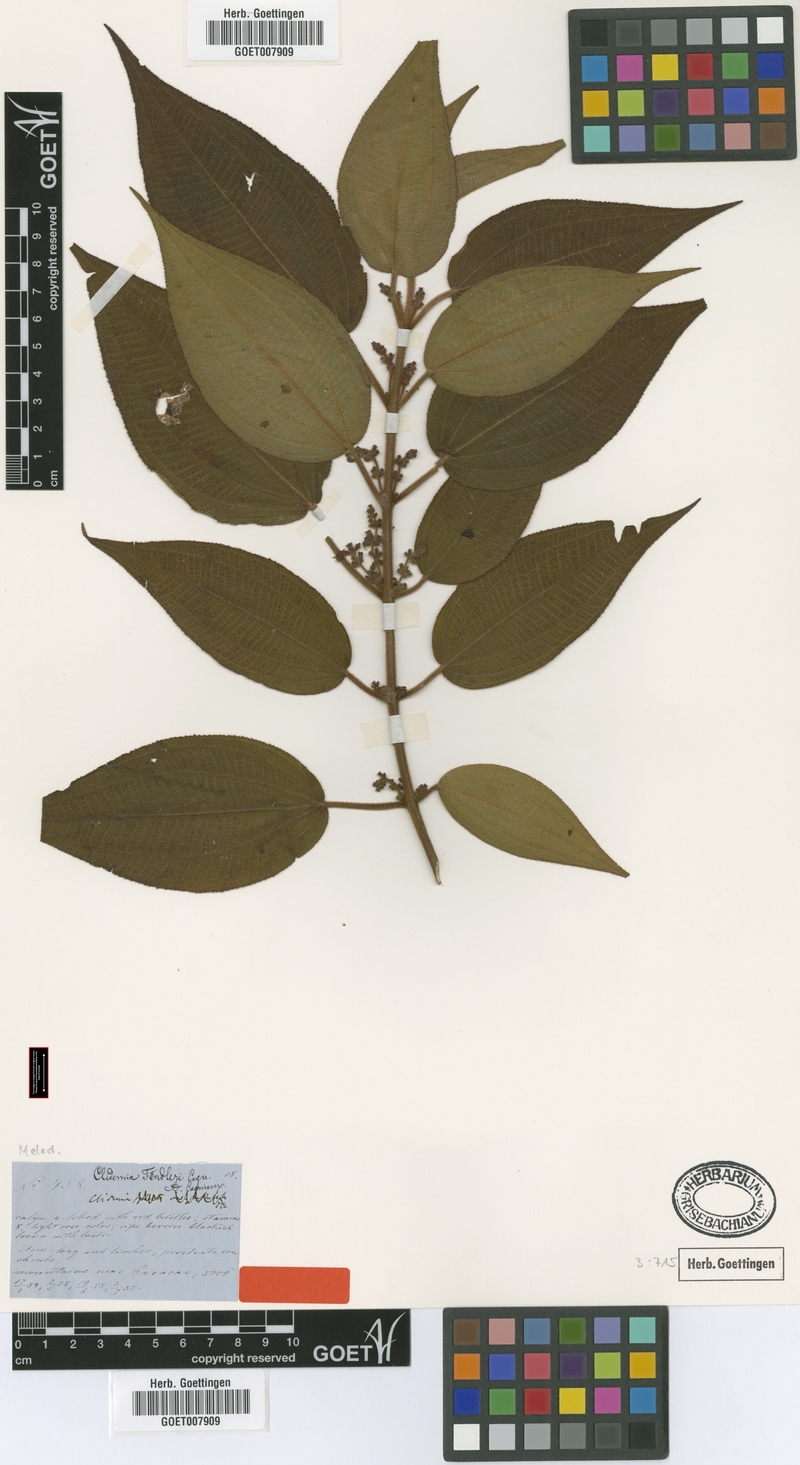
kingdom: Plantae
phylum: Tracheophyta
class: Magnoliopsida
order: Myrtales
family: Melastomataceae
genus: Miconia
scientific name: Miconia rariflora
